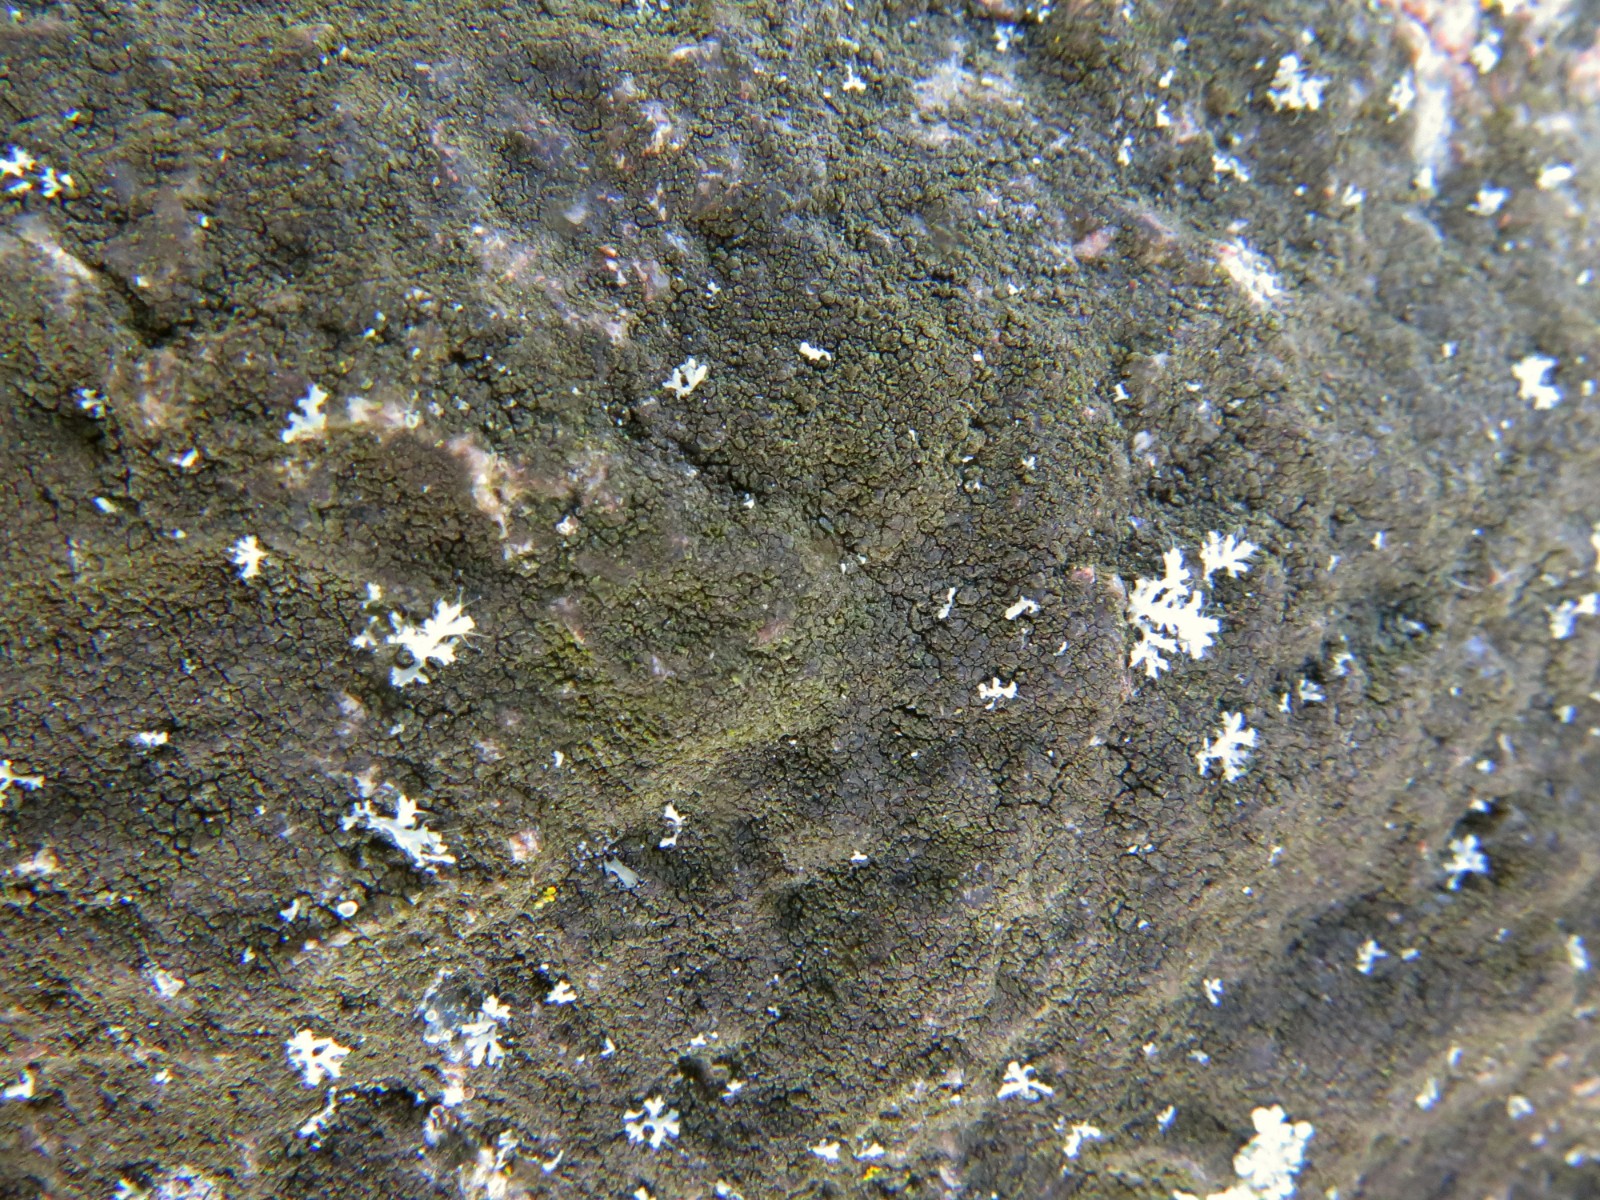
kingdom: Fungi
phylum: Ascomycota
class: Eurotiomycetes
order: Verrucariales
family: Verrucariaceae
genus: Verrucaria
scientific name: Verrucaria nigrescens
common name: sortbrun vortelav
